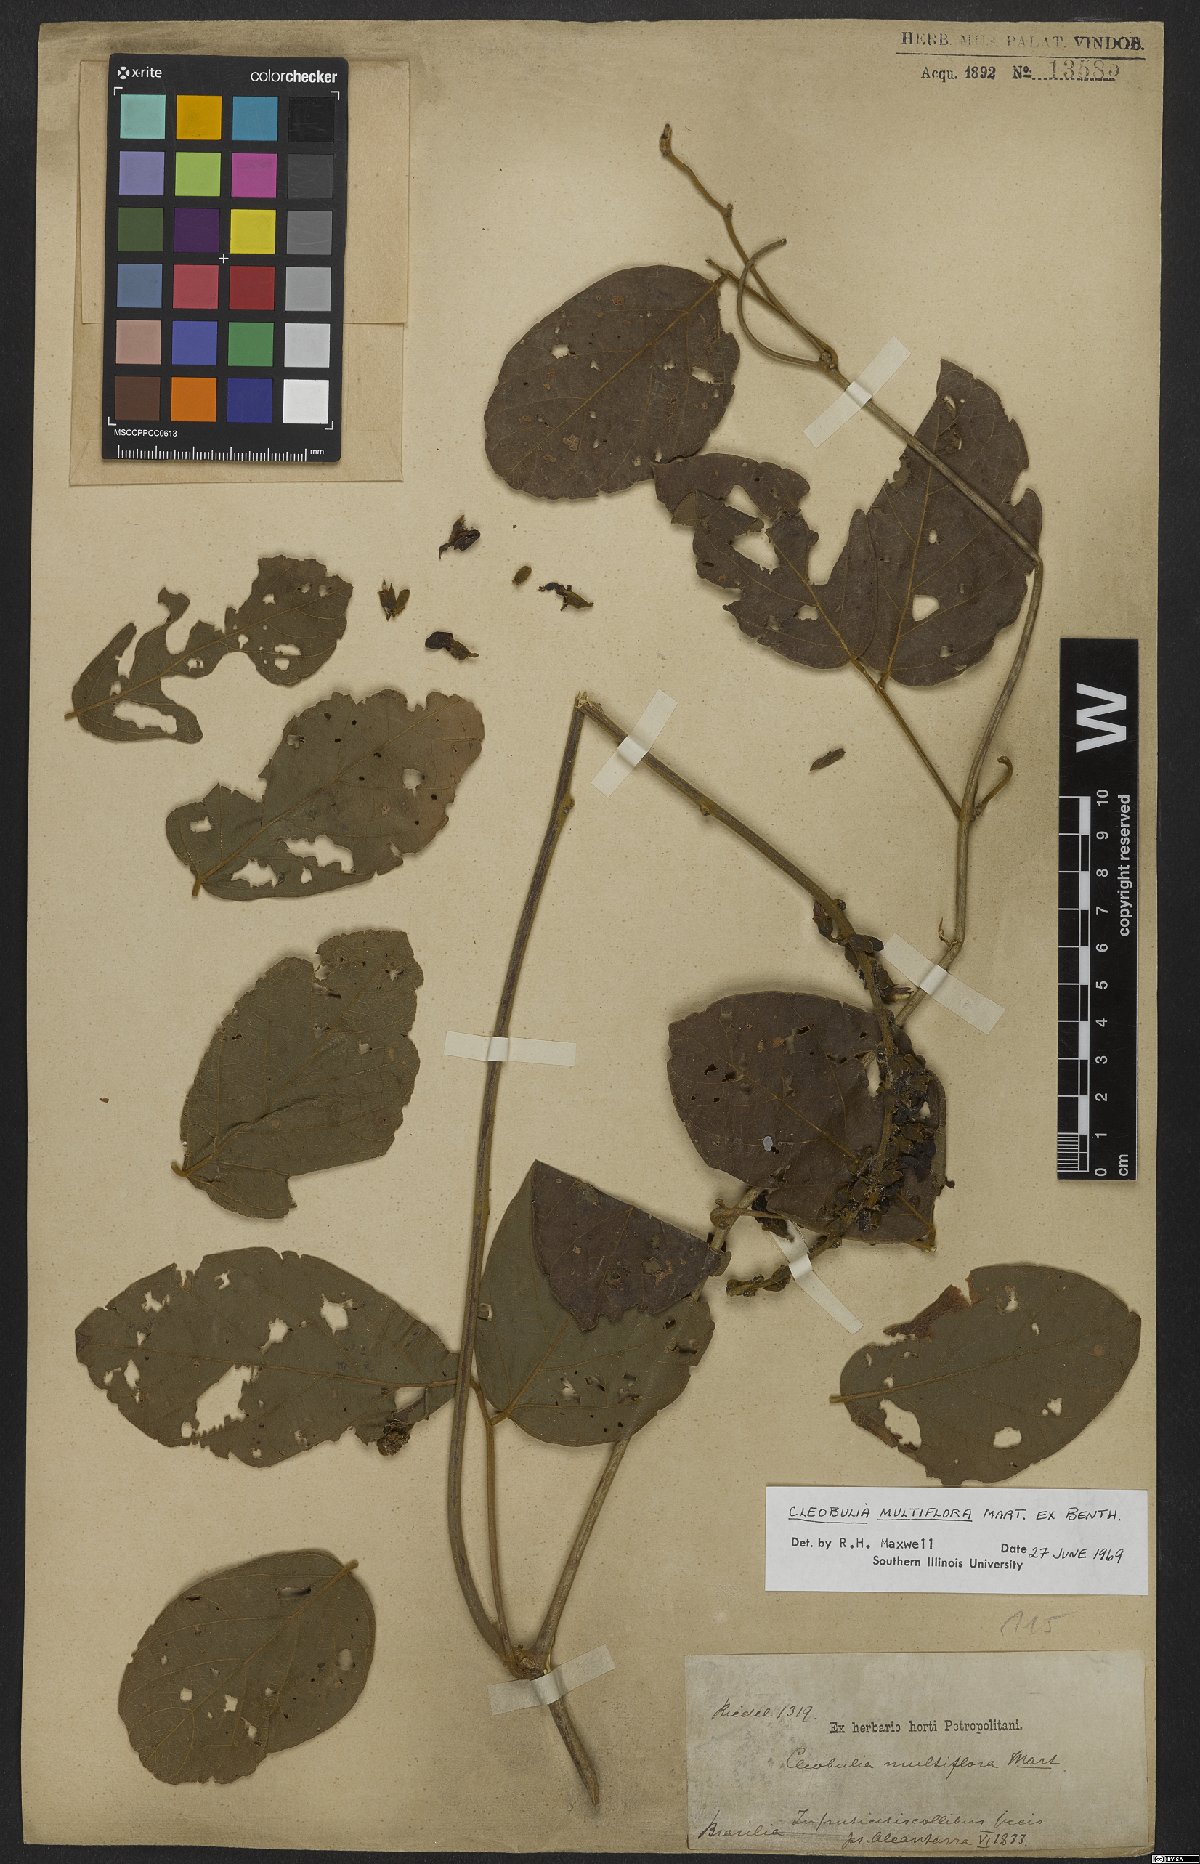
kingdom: Plantae
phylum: Tracheophyta
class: Magnoliopsida
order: Fabales
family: Fabaceae
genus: Cleobulia
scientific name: Cleobulia leiantha
